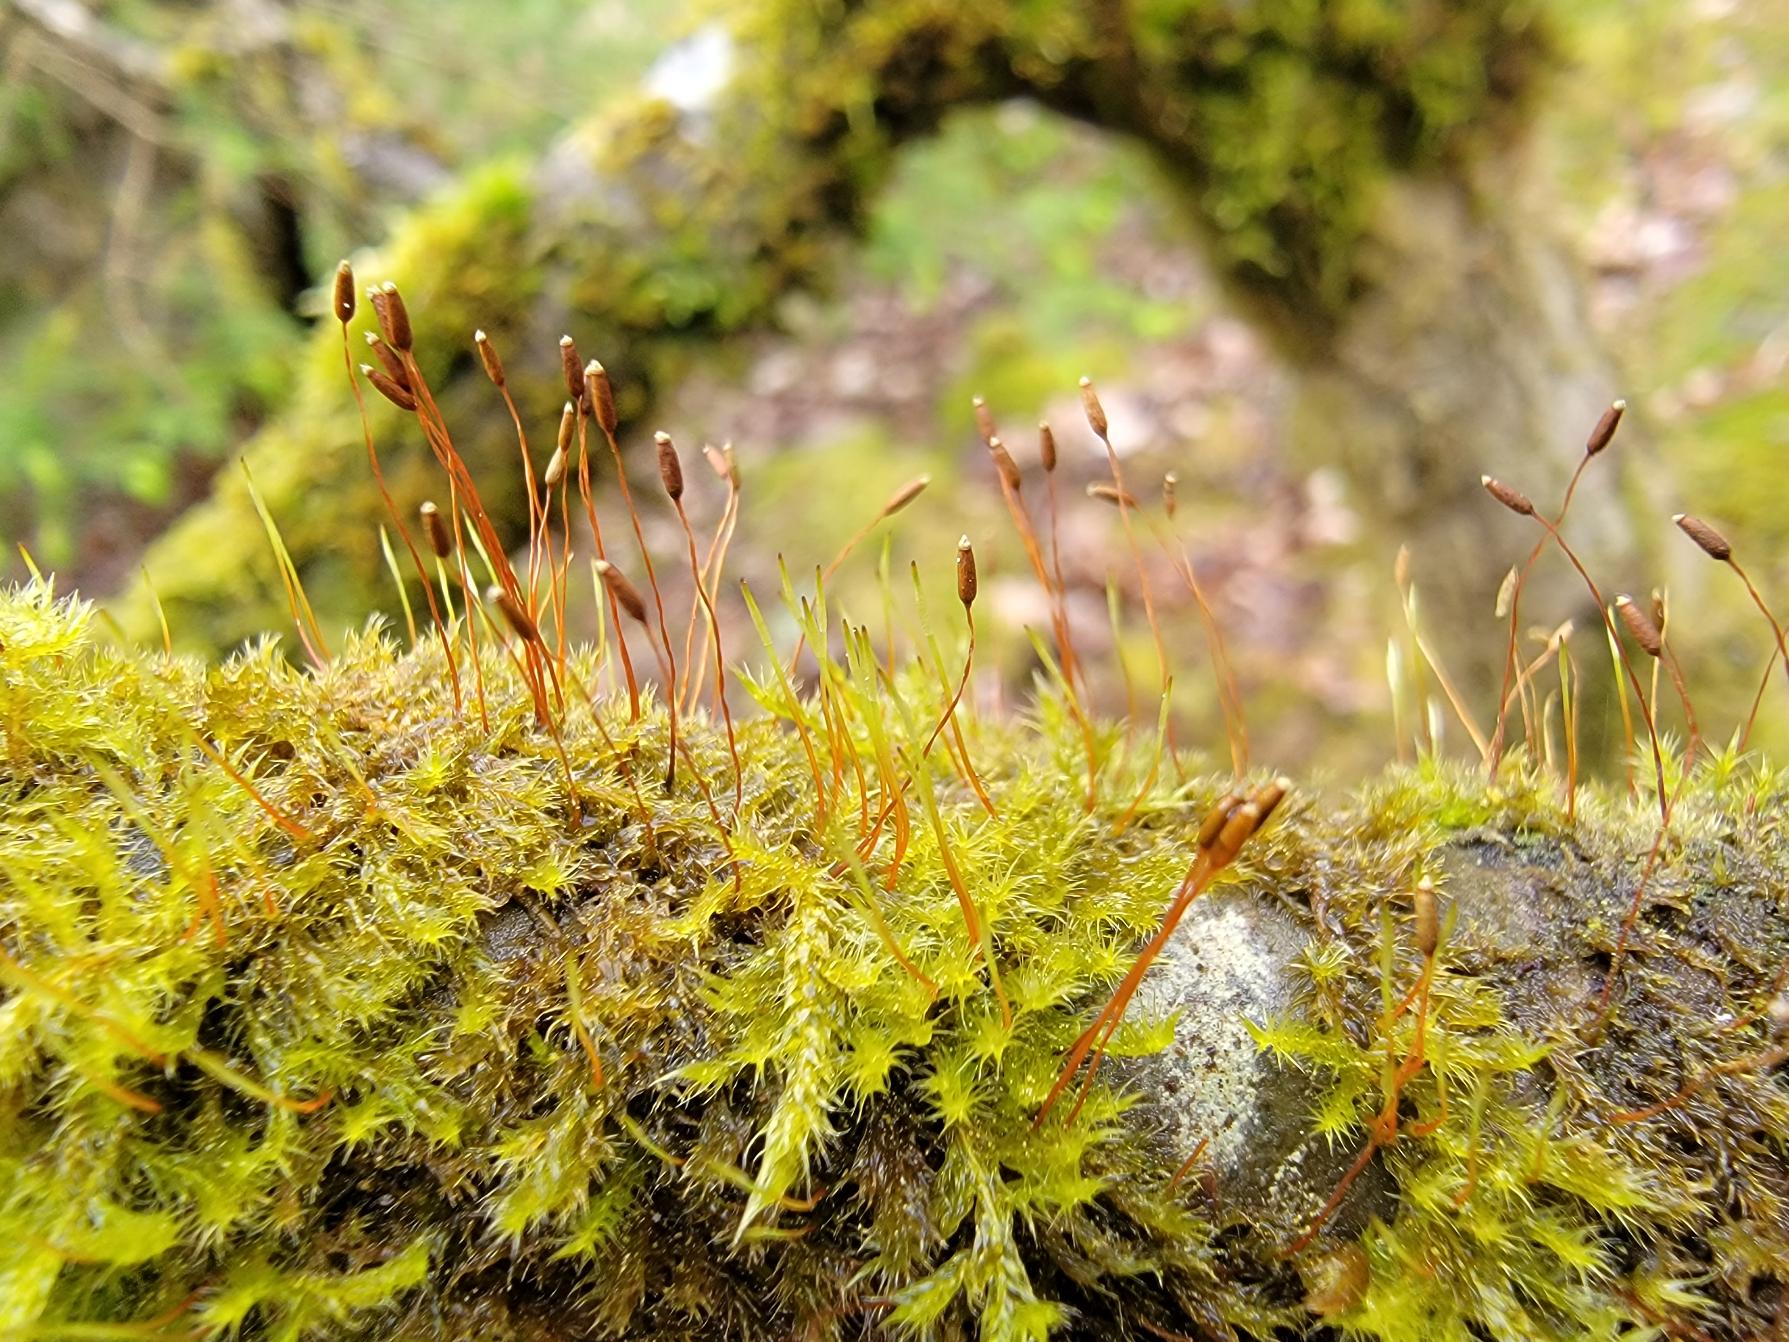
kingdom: Plantae
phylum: Bryophyta
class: Bryopsida
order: Hypnales
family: Pylaisiaceae
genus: Pylaisia
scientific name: Pylaisia polyantha
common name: Mangefrugtet aspemos
